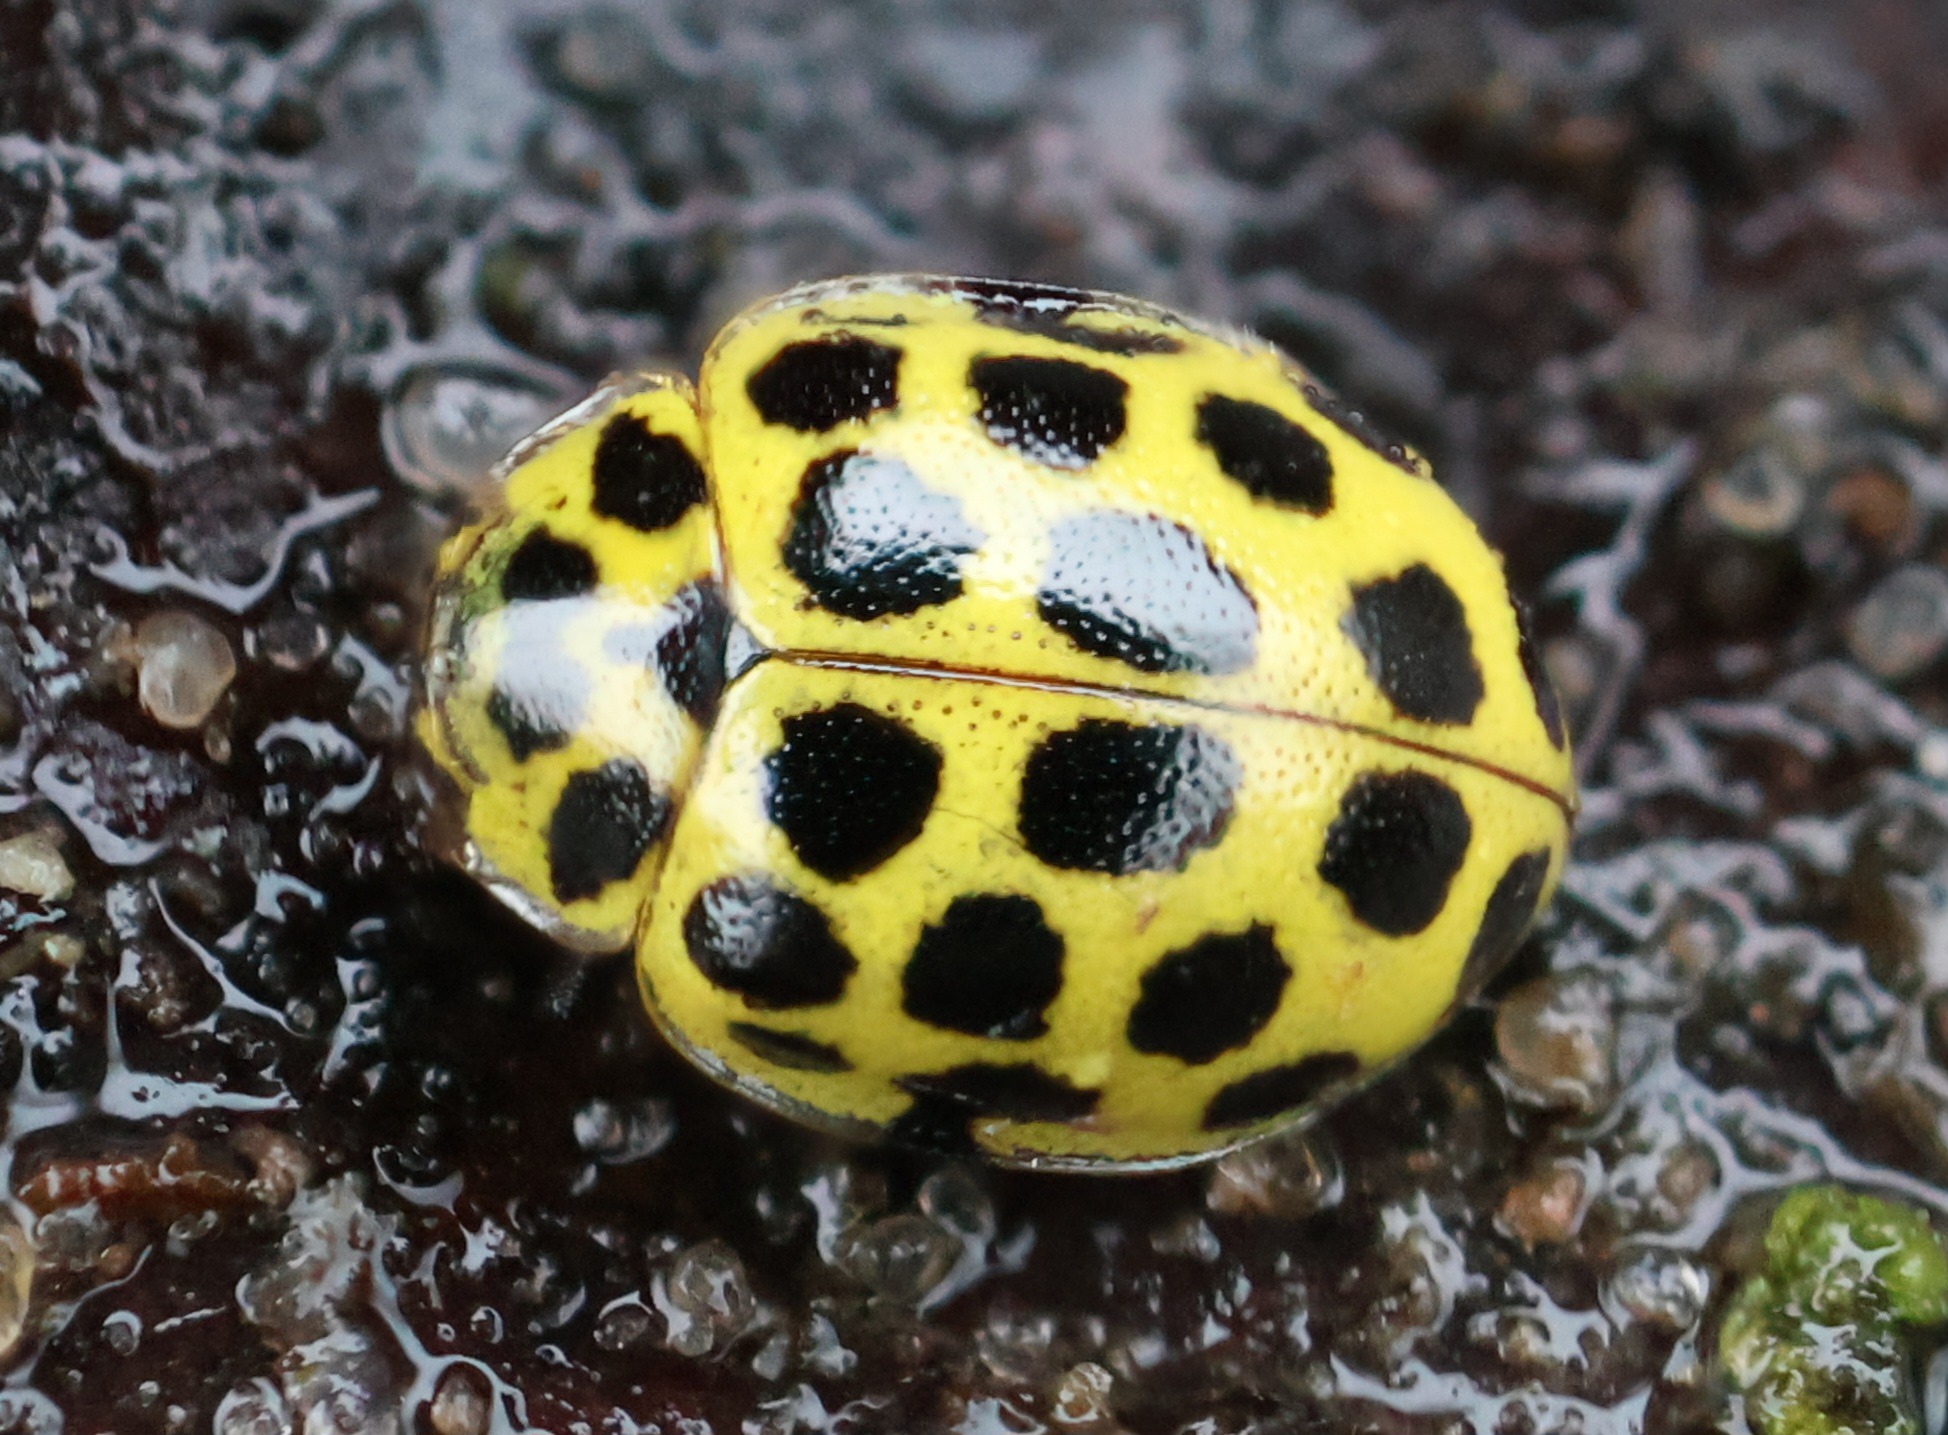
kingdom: Animalia
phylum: Arthropoda
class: Insecta
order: Coleoptera
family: Coccinellidae
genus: Psyllobora
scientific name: Psyllobora vigintiduopunctata
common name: Toogtyveplettet mariehøne
